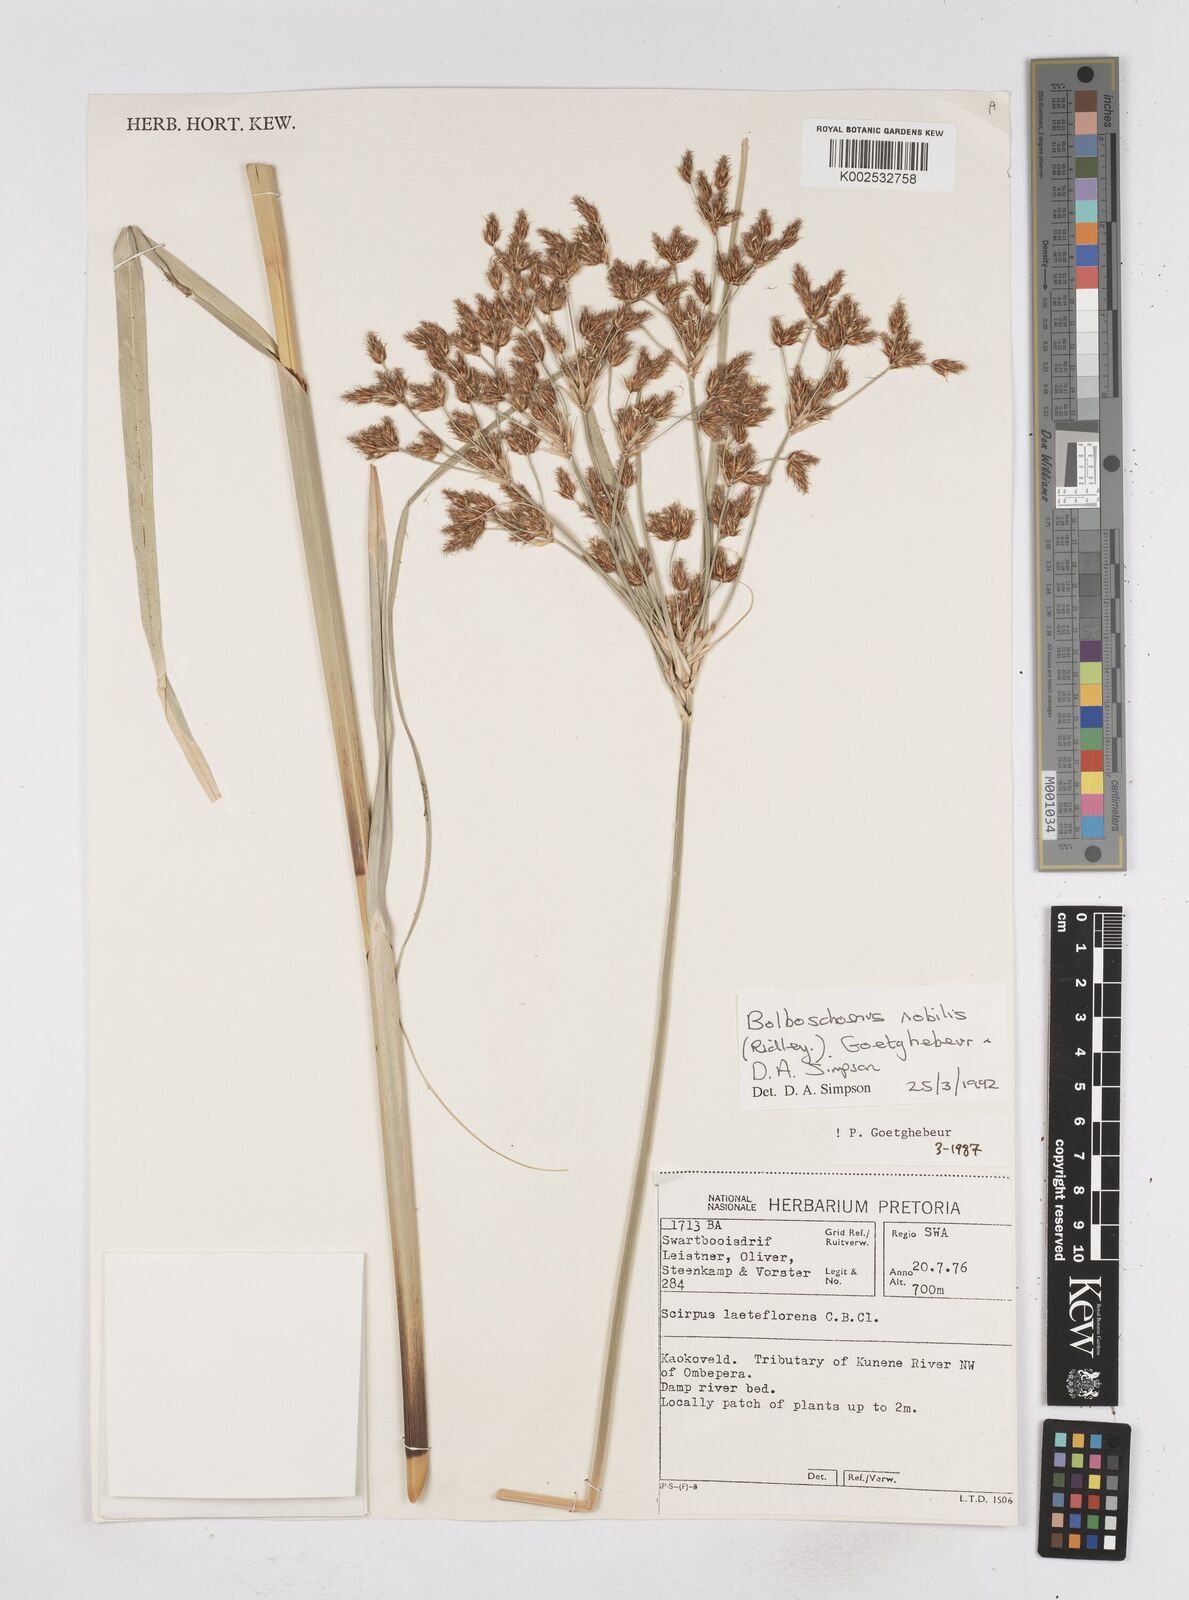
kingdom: Plantae
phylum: Tracheophyta
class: Liliopsida
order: Poales
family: Cyperaceae
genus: Bolboschoenus
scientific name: Bolboschoenus nobilis
